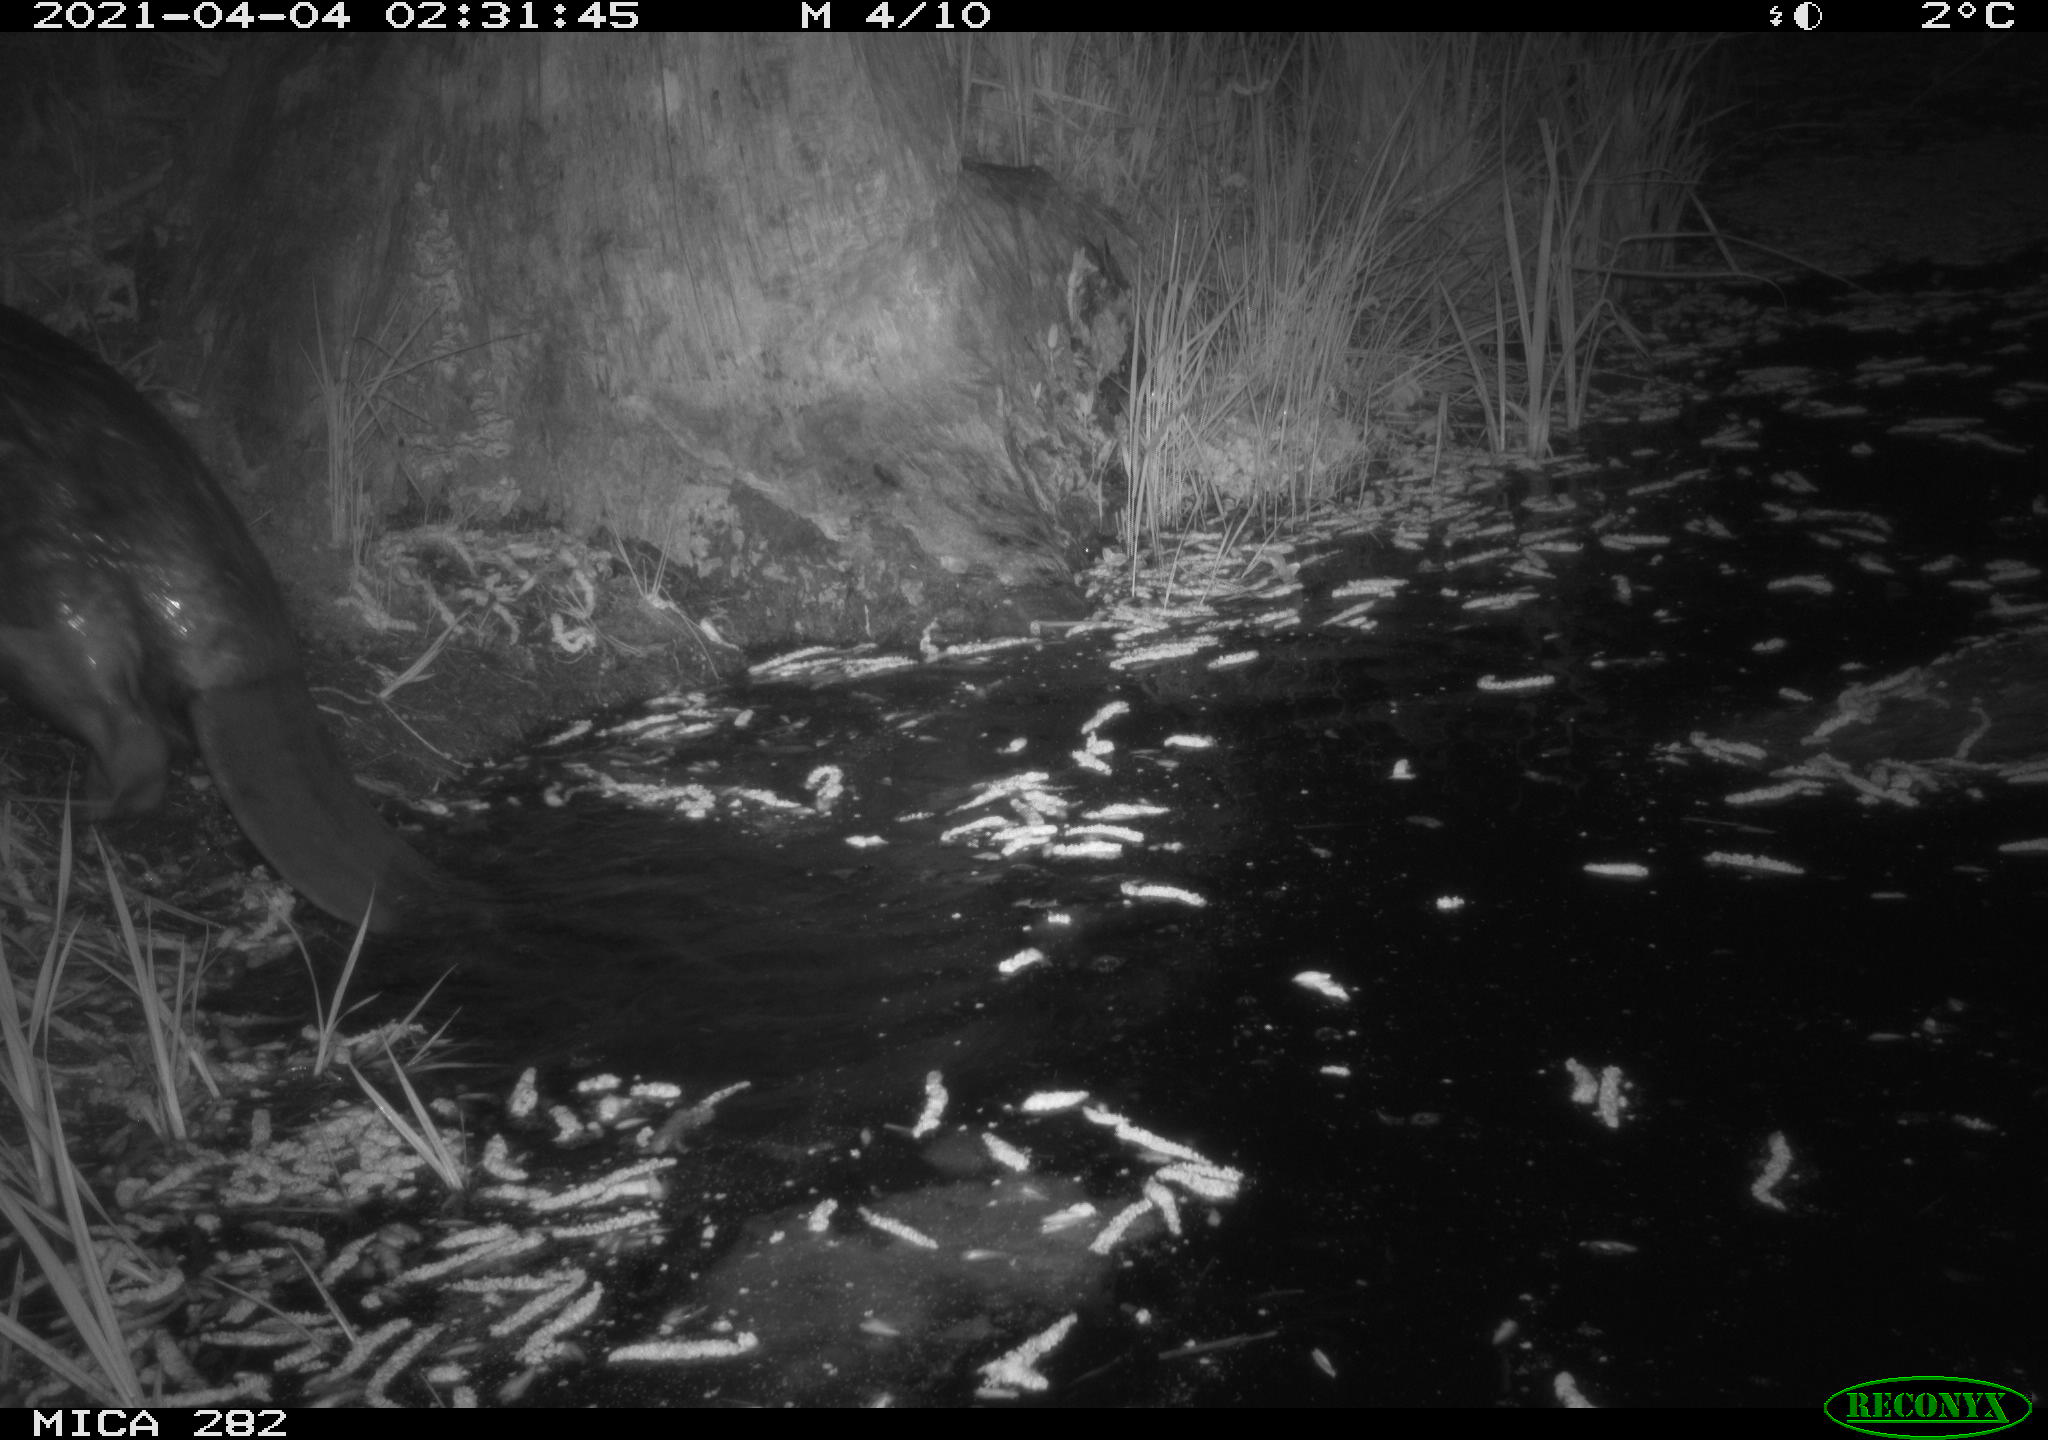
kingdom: Animalia
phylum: Chordata
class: Mammalia
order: Rodentia
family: Castoridae
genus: Castor
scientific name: Castor fiber
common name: Eurasian beaver
